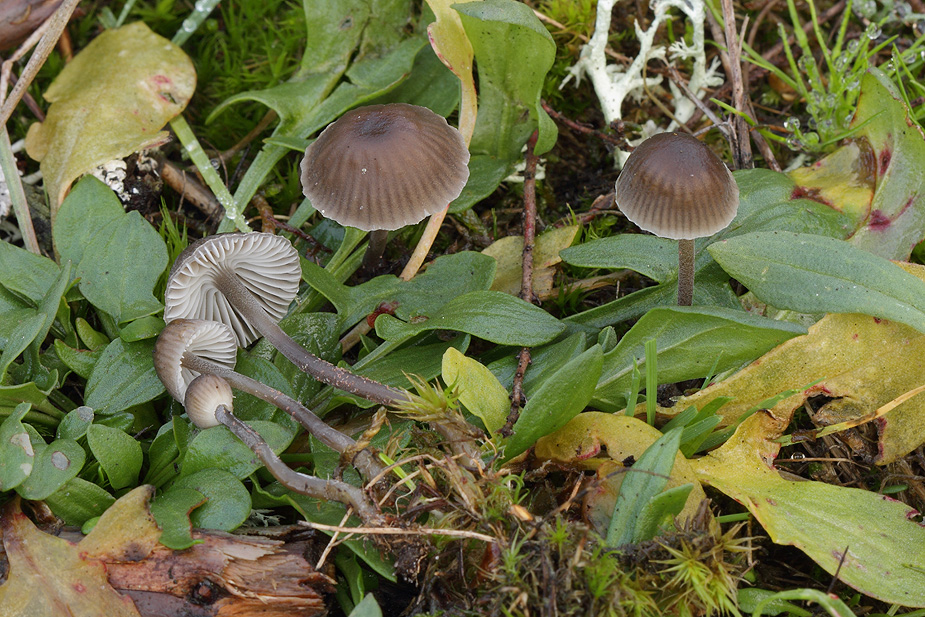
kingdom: Fungi
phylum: Basidiomycota
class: Agaricomycetes
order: Agaricales
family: Mycenaceae
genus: Mycena
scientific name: Mycena epipterygia
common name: Yellowleg bonnet
